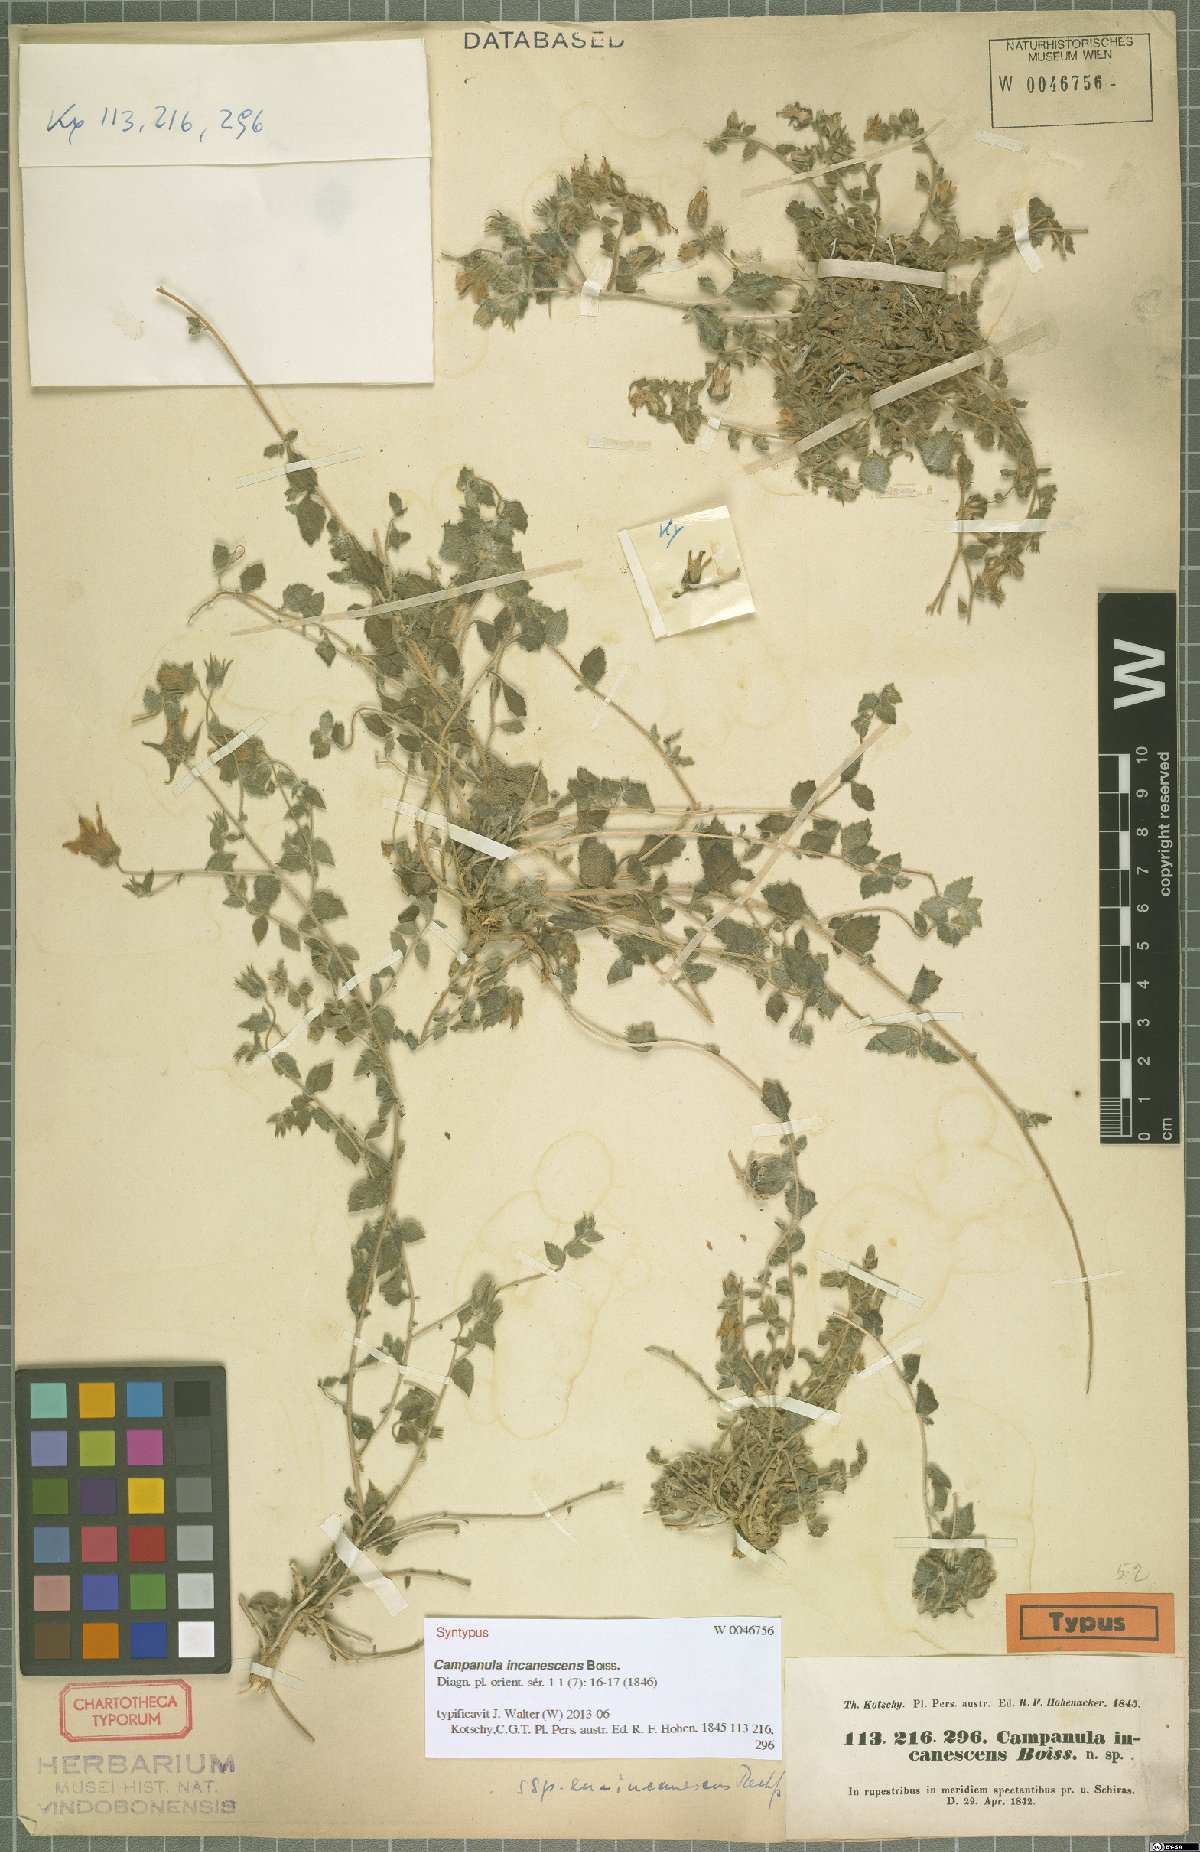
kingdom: Plantae
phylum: Tracheophyta
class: Magnoliopsida
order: Asterales
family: Campanulaceae
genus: Campanula
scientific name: Campanula incanescens
